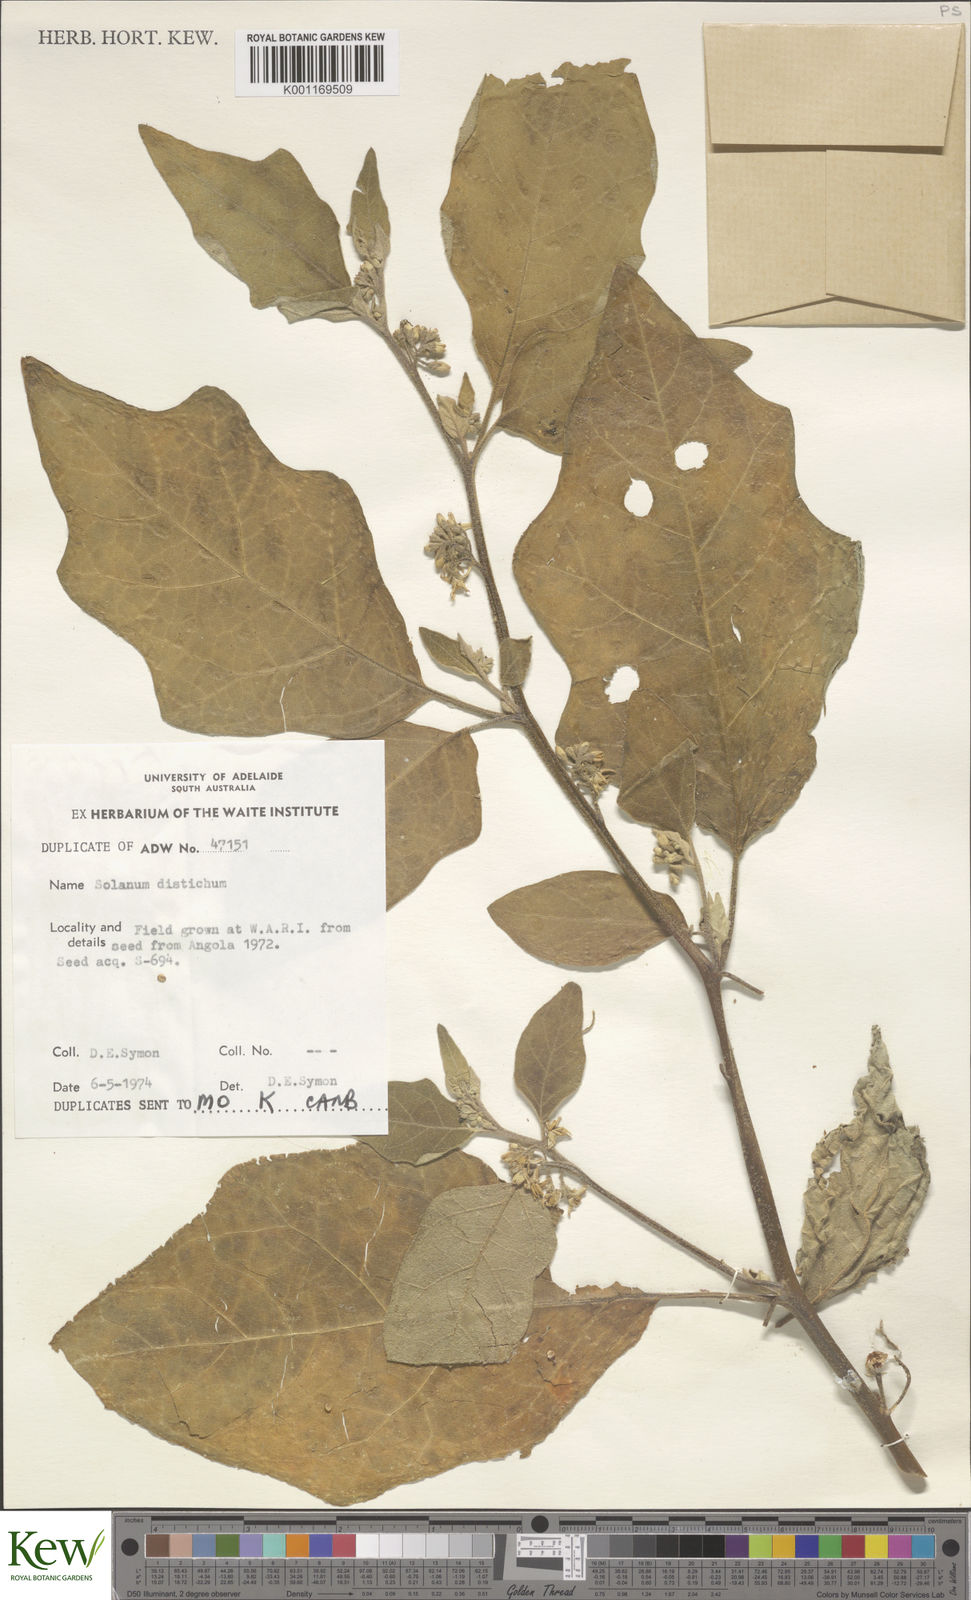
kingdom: Plantae
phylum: Tracheophyta
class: Magnoliopsida
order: Solanales
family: Solanaceae
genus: Solanum
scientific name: Solanum ditrichum
